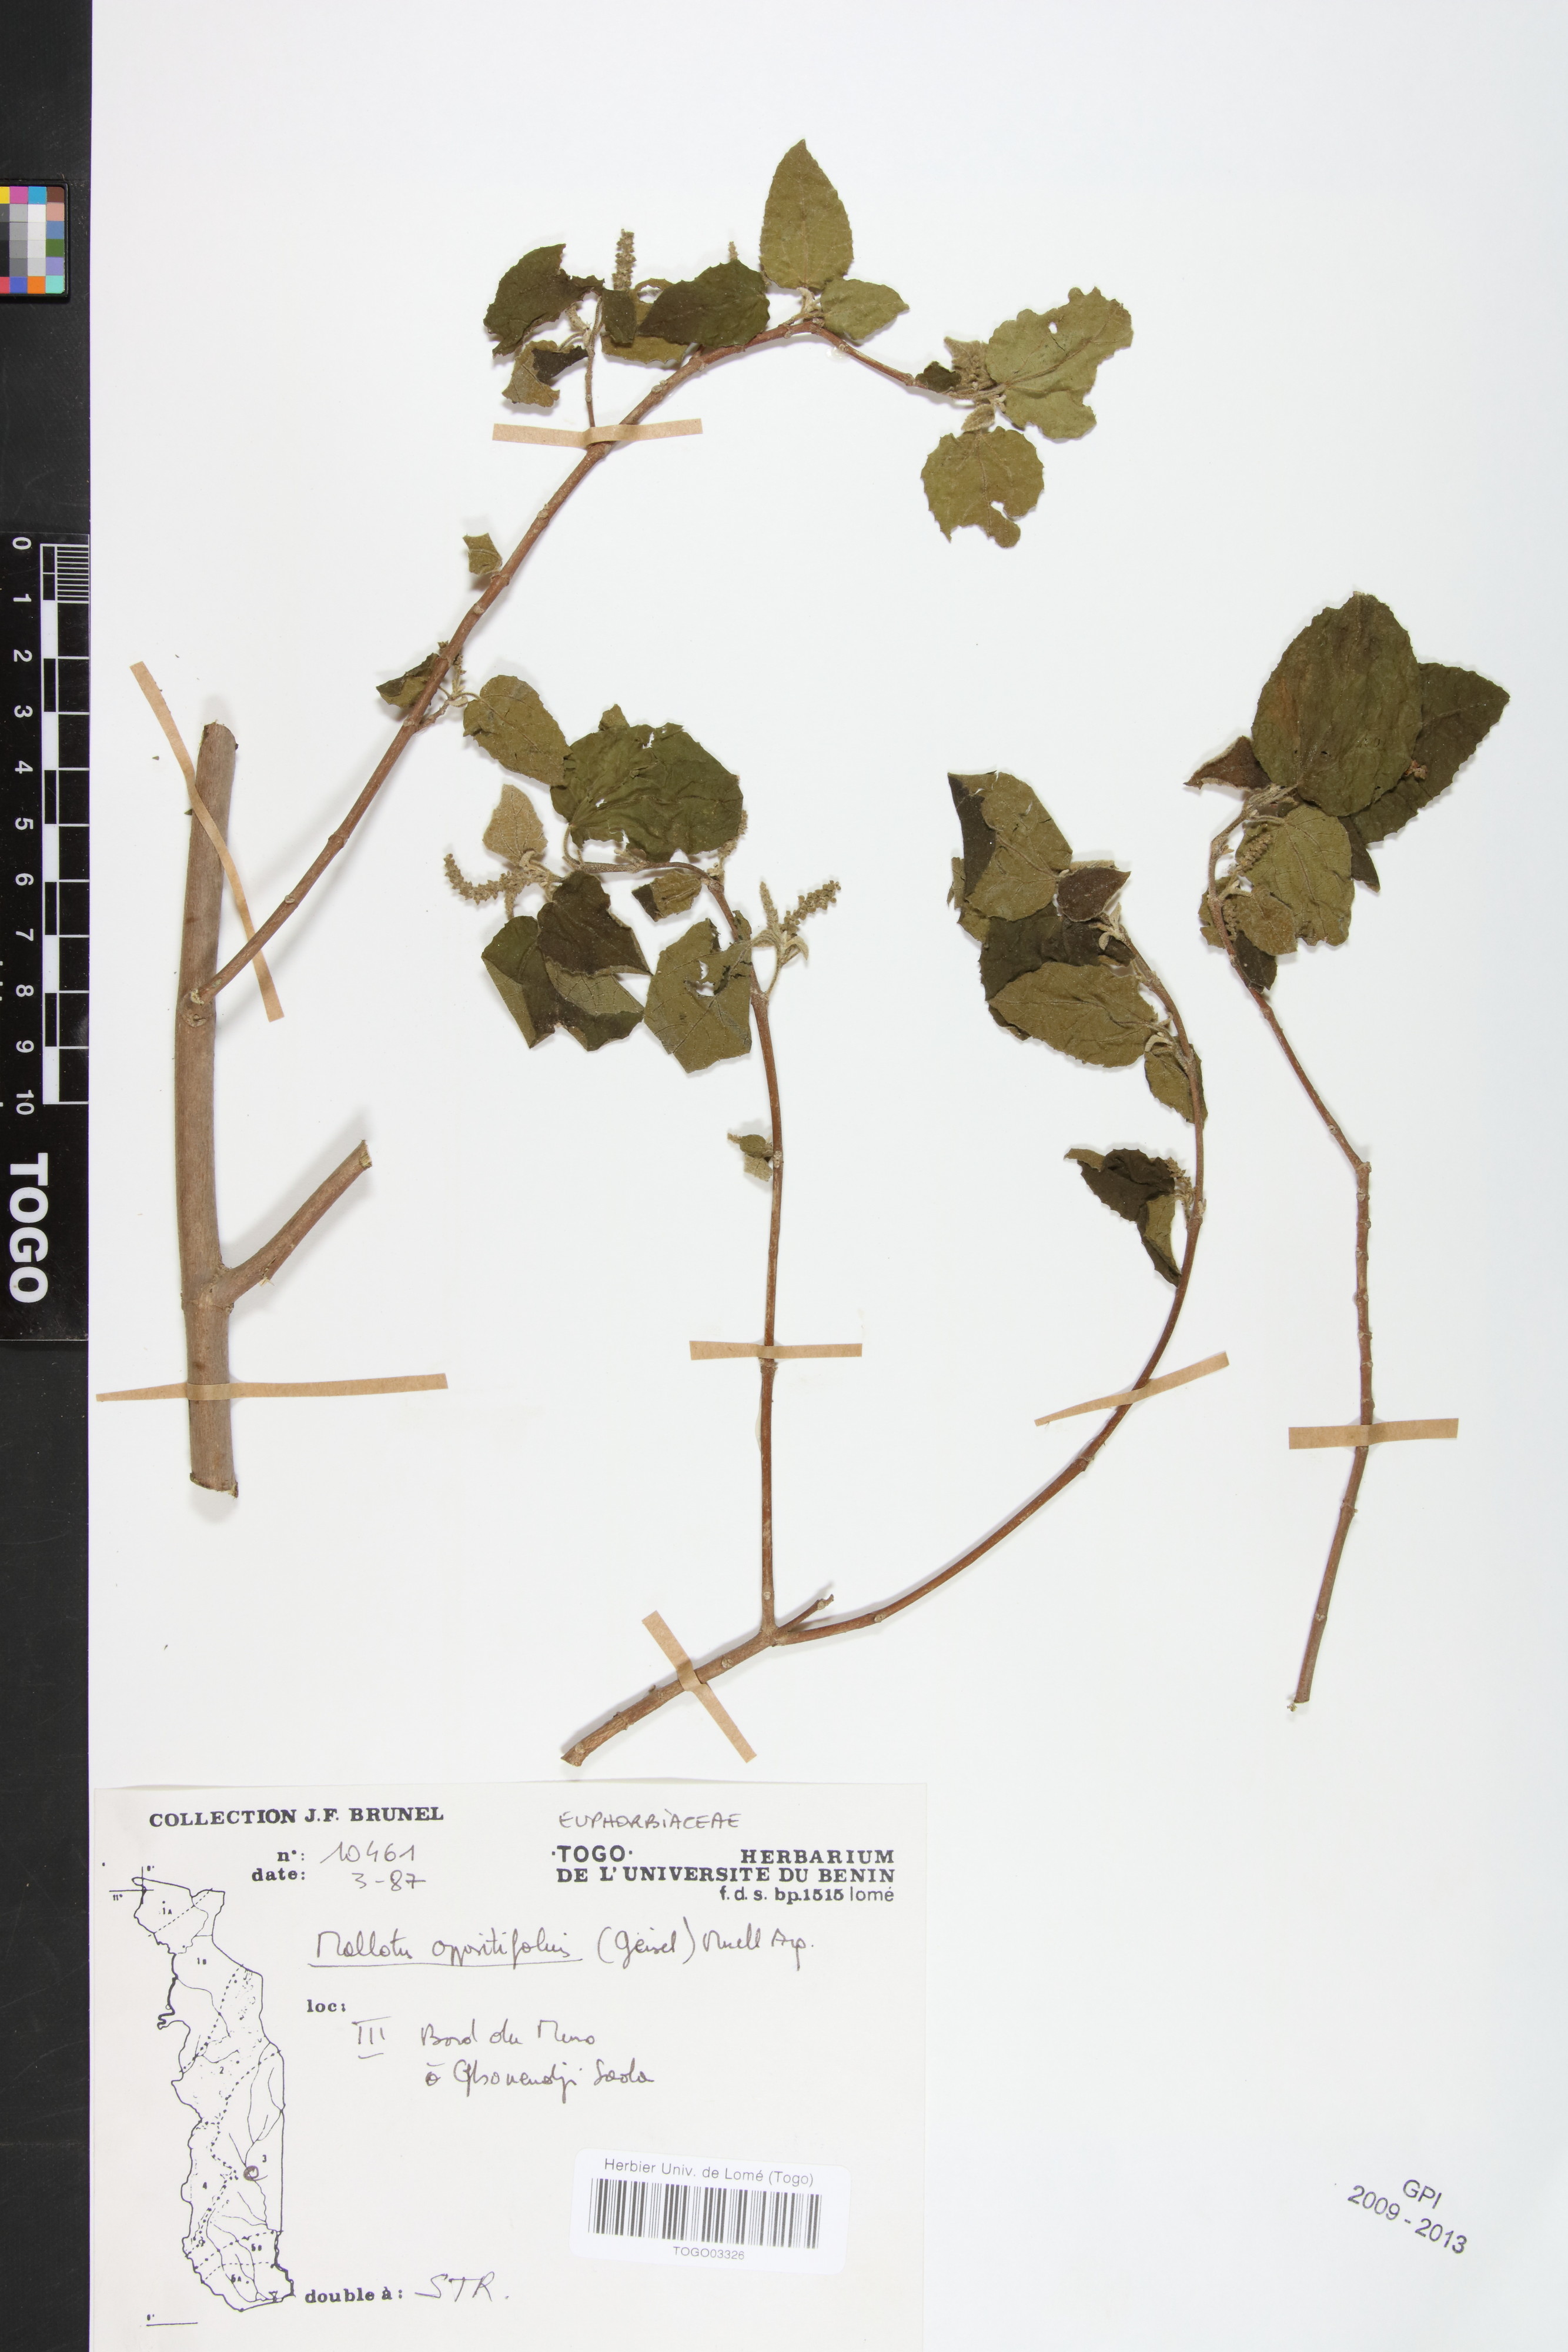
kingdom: Plantae
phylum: Tracheophyta
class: Magnoliopsida
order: Malpighiales
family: Euphorbiaceae
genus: Mallotus
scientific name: Mallotus oppositifolius
